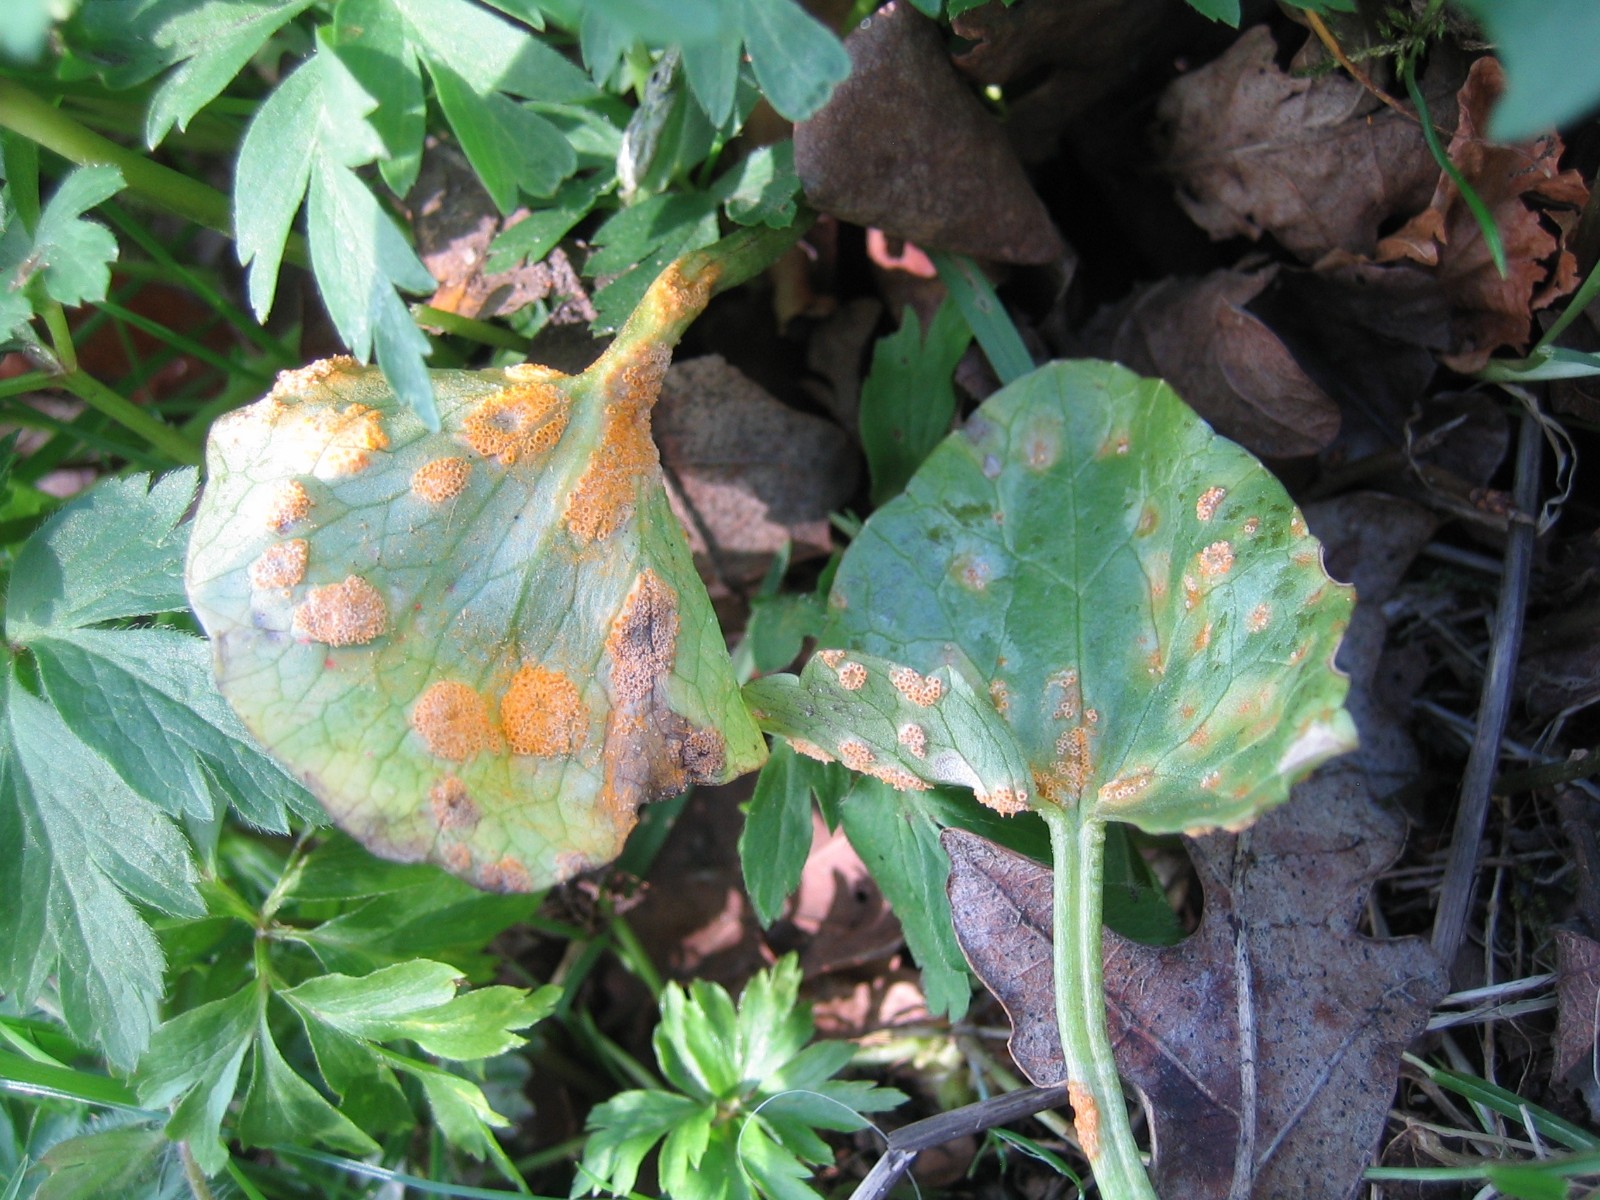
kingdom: Fungi
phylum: Basidiomycota
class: Pucciniomycetes
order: Pucciniales
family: Pucciniaceae
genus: Uromyces
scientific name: Uromyces dactylidis
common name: ranunkel-encellerust
